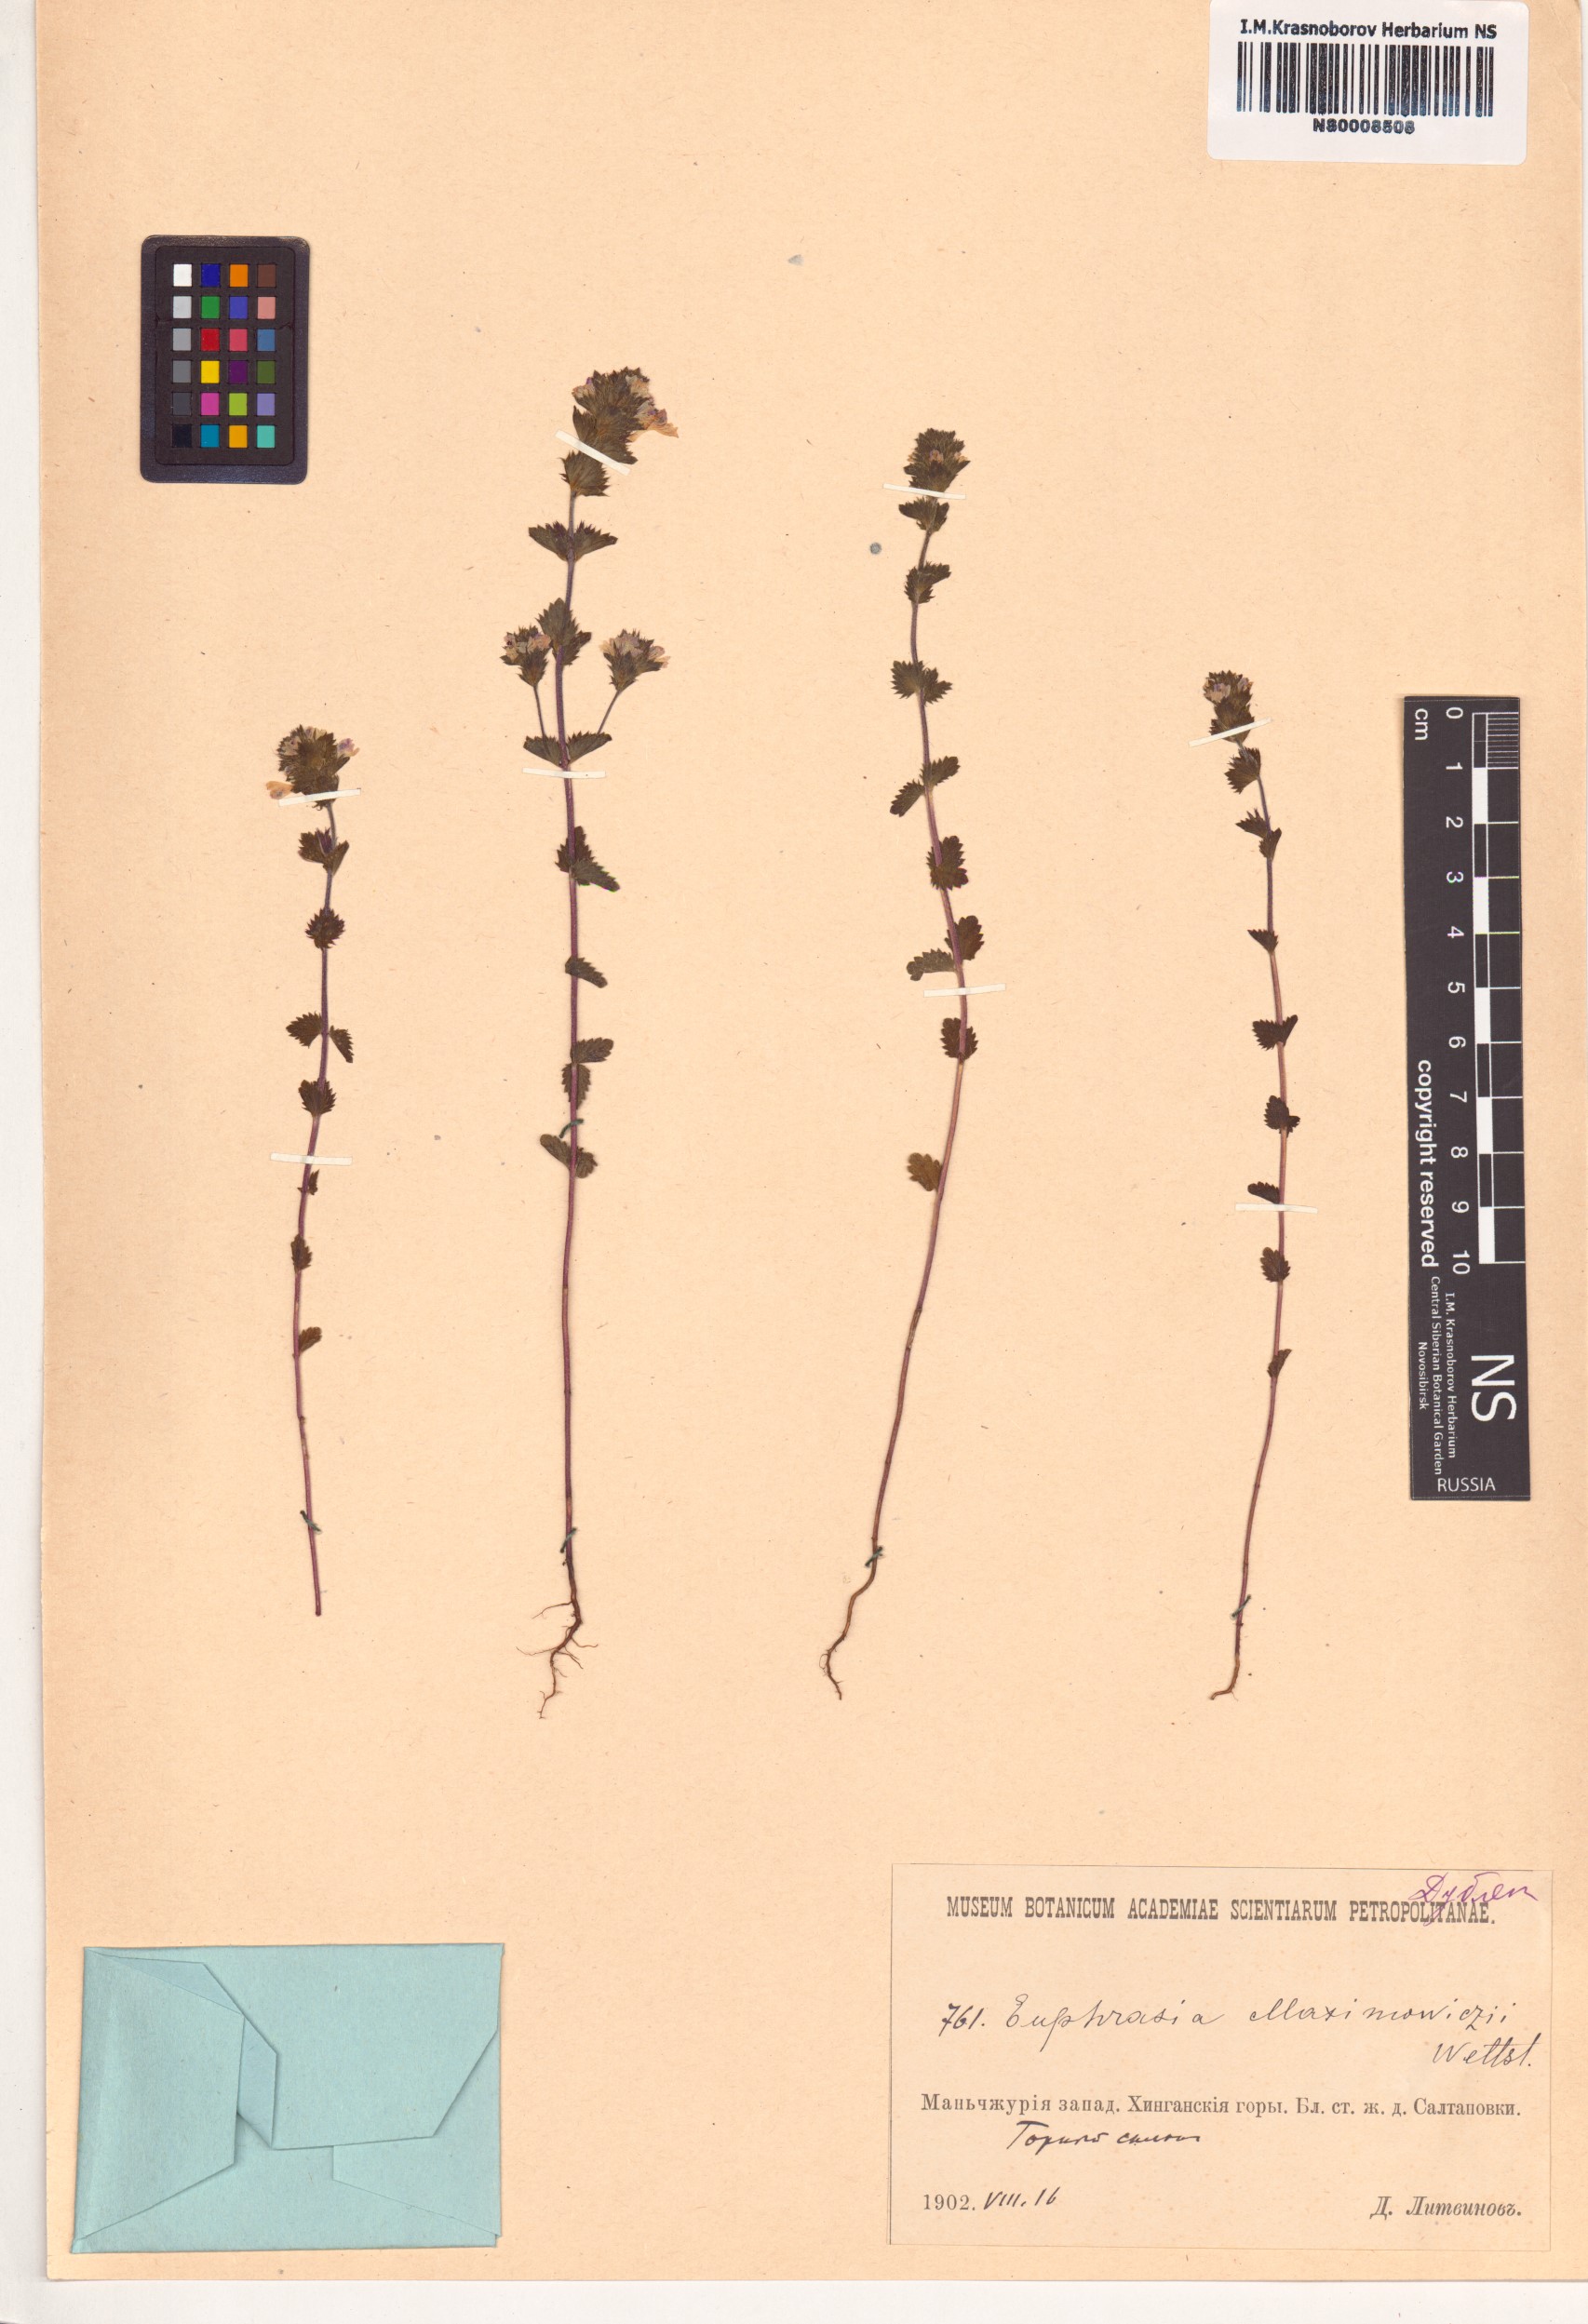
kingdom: Plantae
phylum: Tracheophyta
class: Magnoliopsida
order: Lamiales
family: Orobanchaceae
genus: Euphrasia
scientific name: Euphrasia maximowiczii
